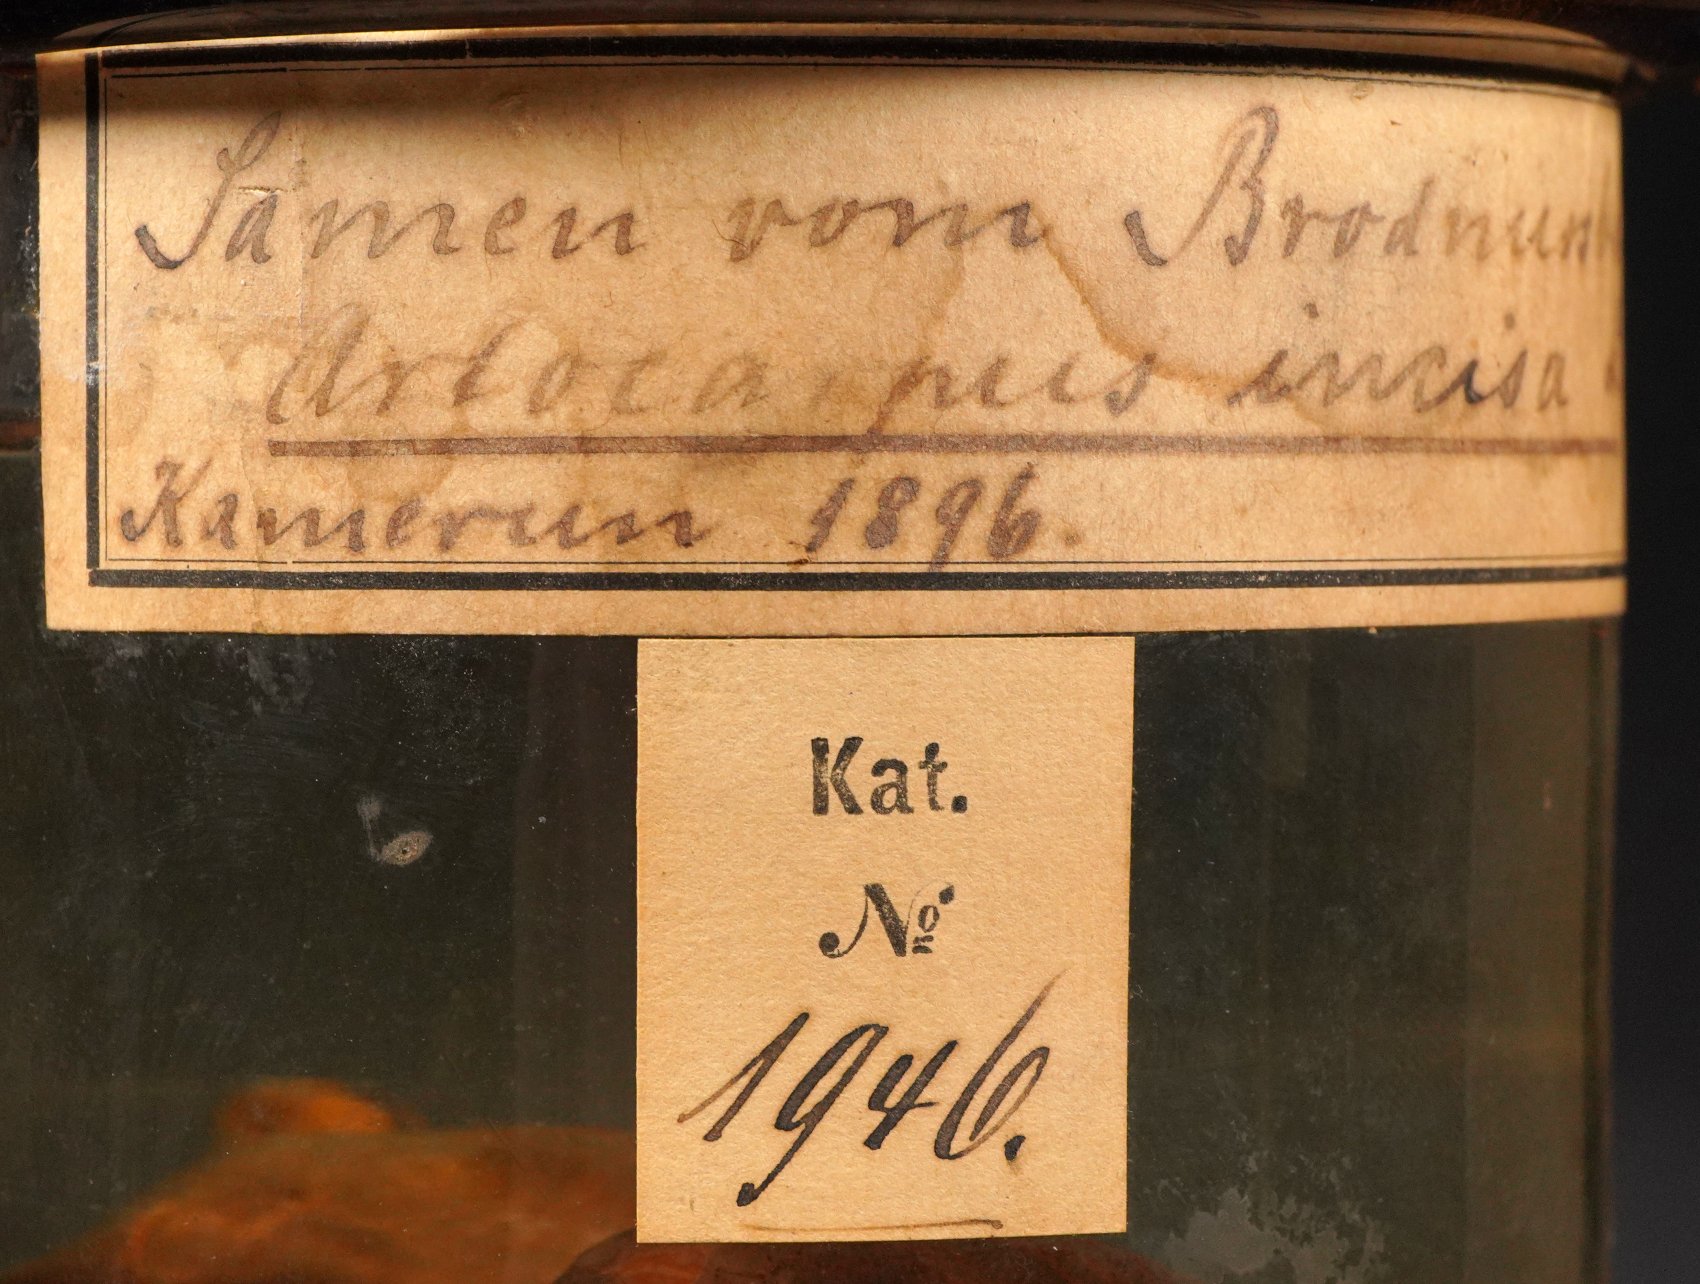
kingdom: Plantae
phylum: Tracheophyta
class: Magnoliopsida
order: Rosales
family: Moraceae
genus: Artocarpus
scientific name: Artocarpus altilis
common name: Breadfruit
